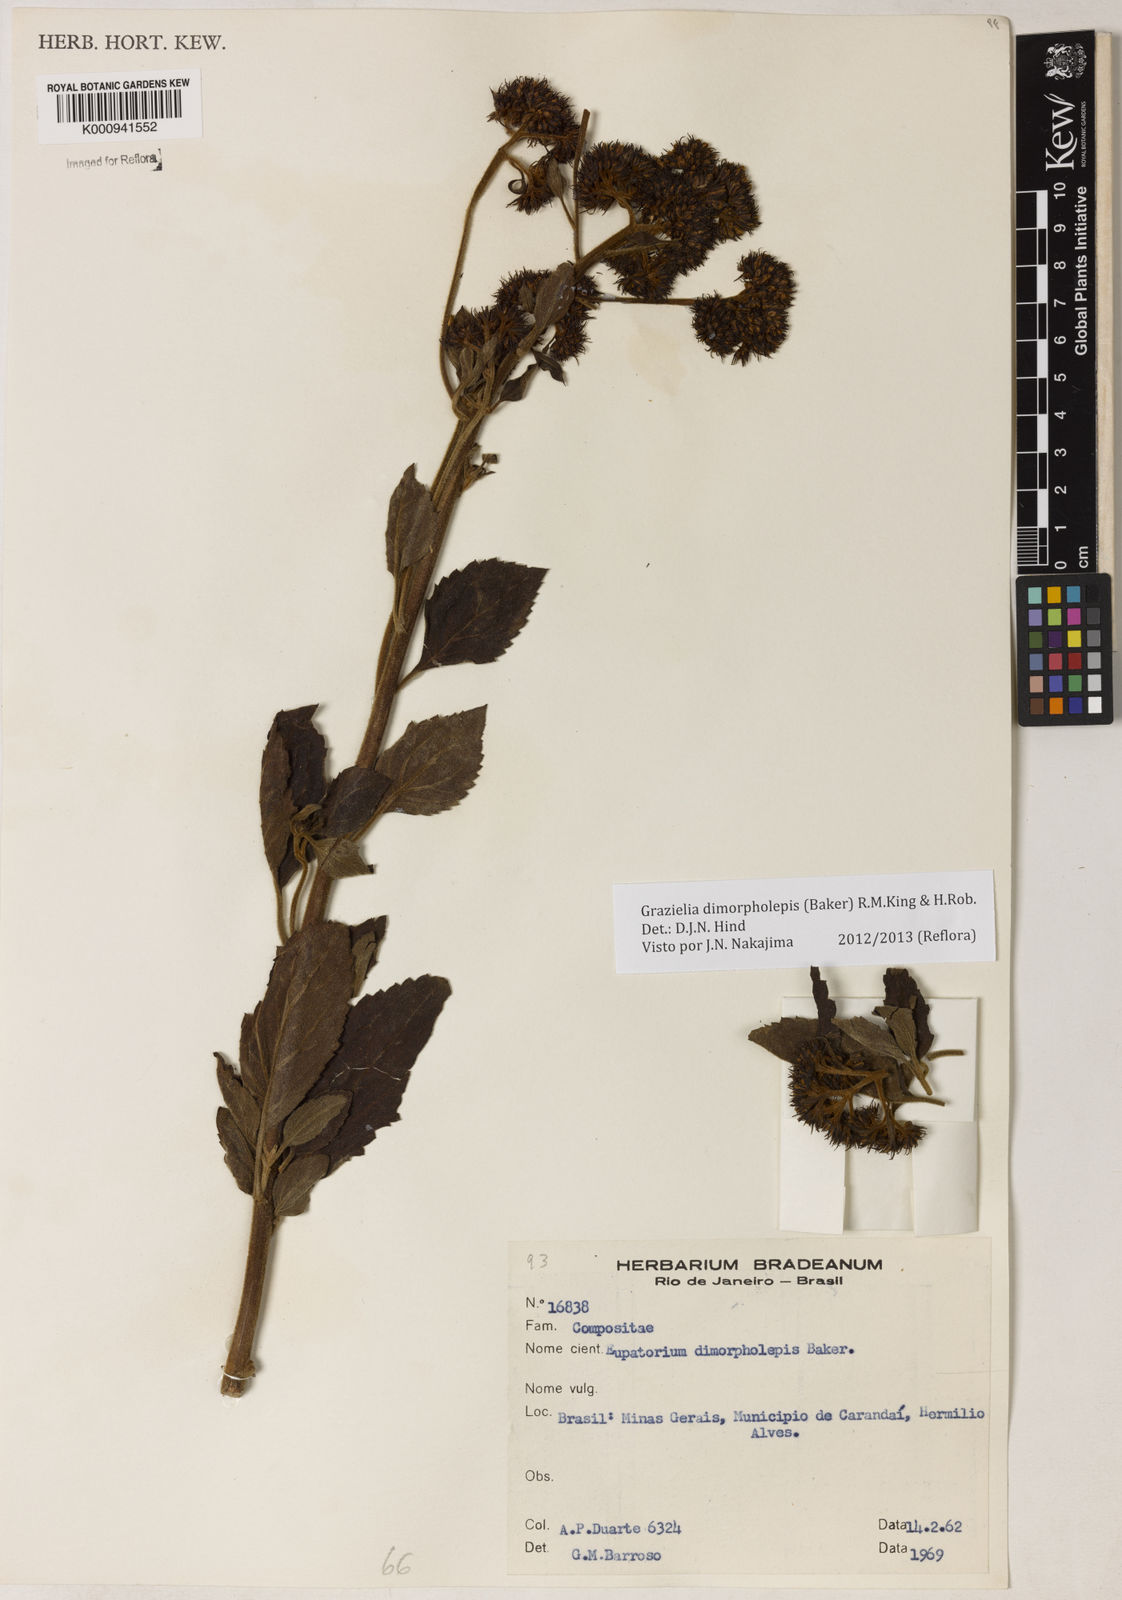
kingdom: Plantae
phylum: Tracheophyta
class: Magnoliopsida
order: Asterales
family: Asteraceae
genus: Grazielia
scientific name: Grazielia dimorpholepis
